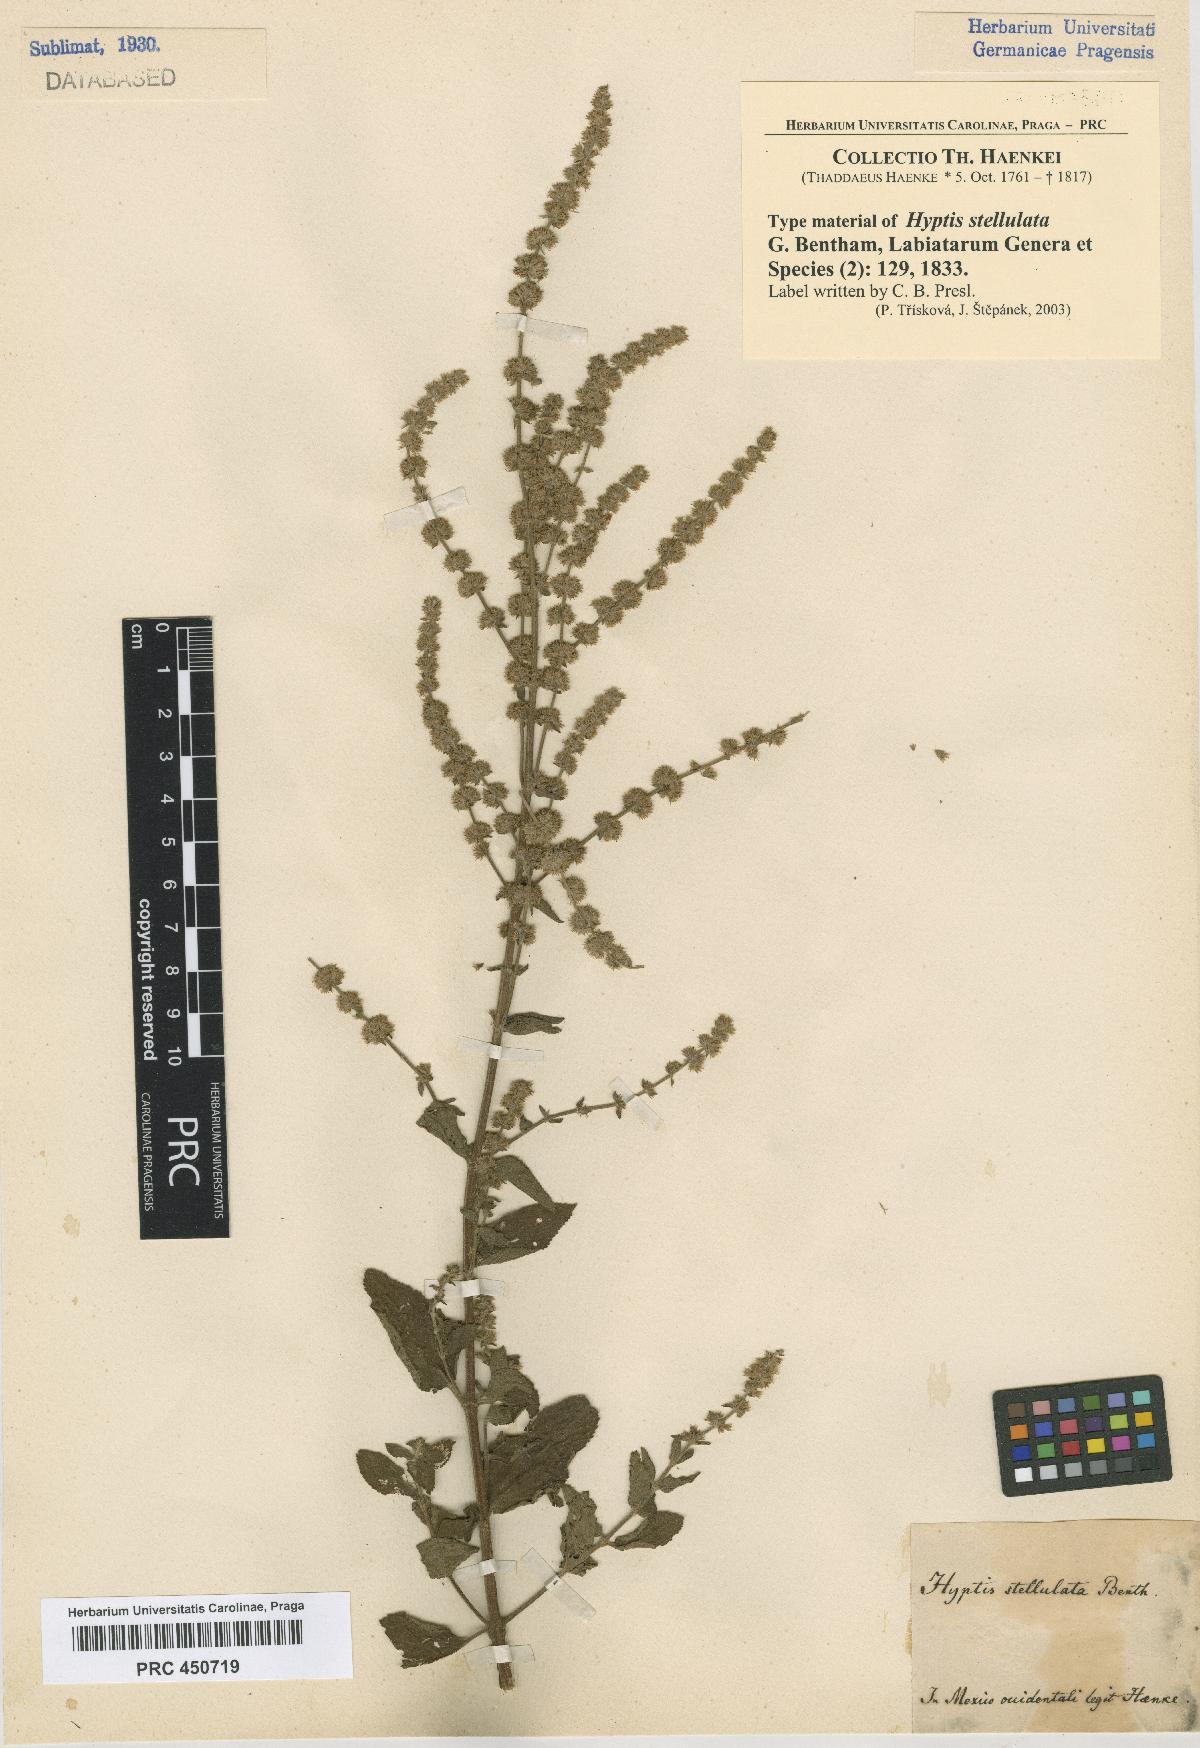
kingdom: Plantae
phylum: Tracheophyta
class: Magnoliopsida
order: Lamiales
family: Lamiaceae
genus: Asterohyptis
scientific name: Asterohyptis stellulata
